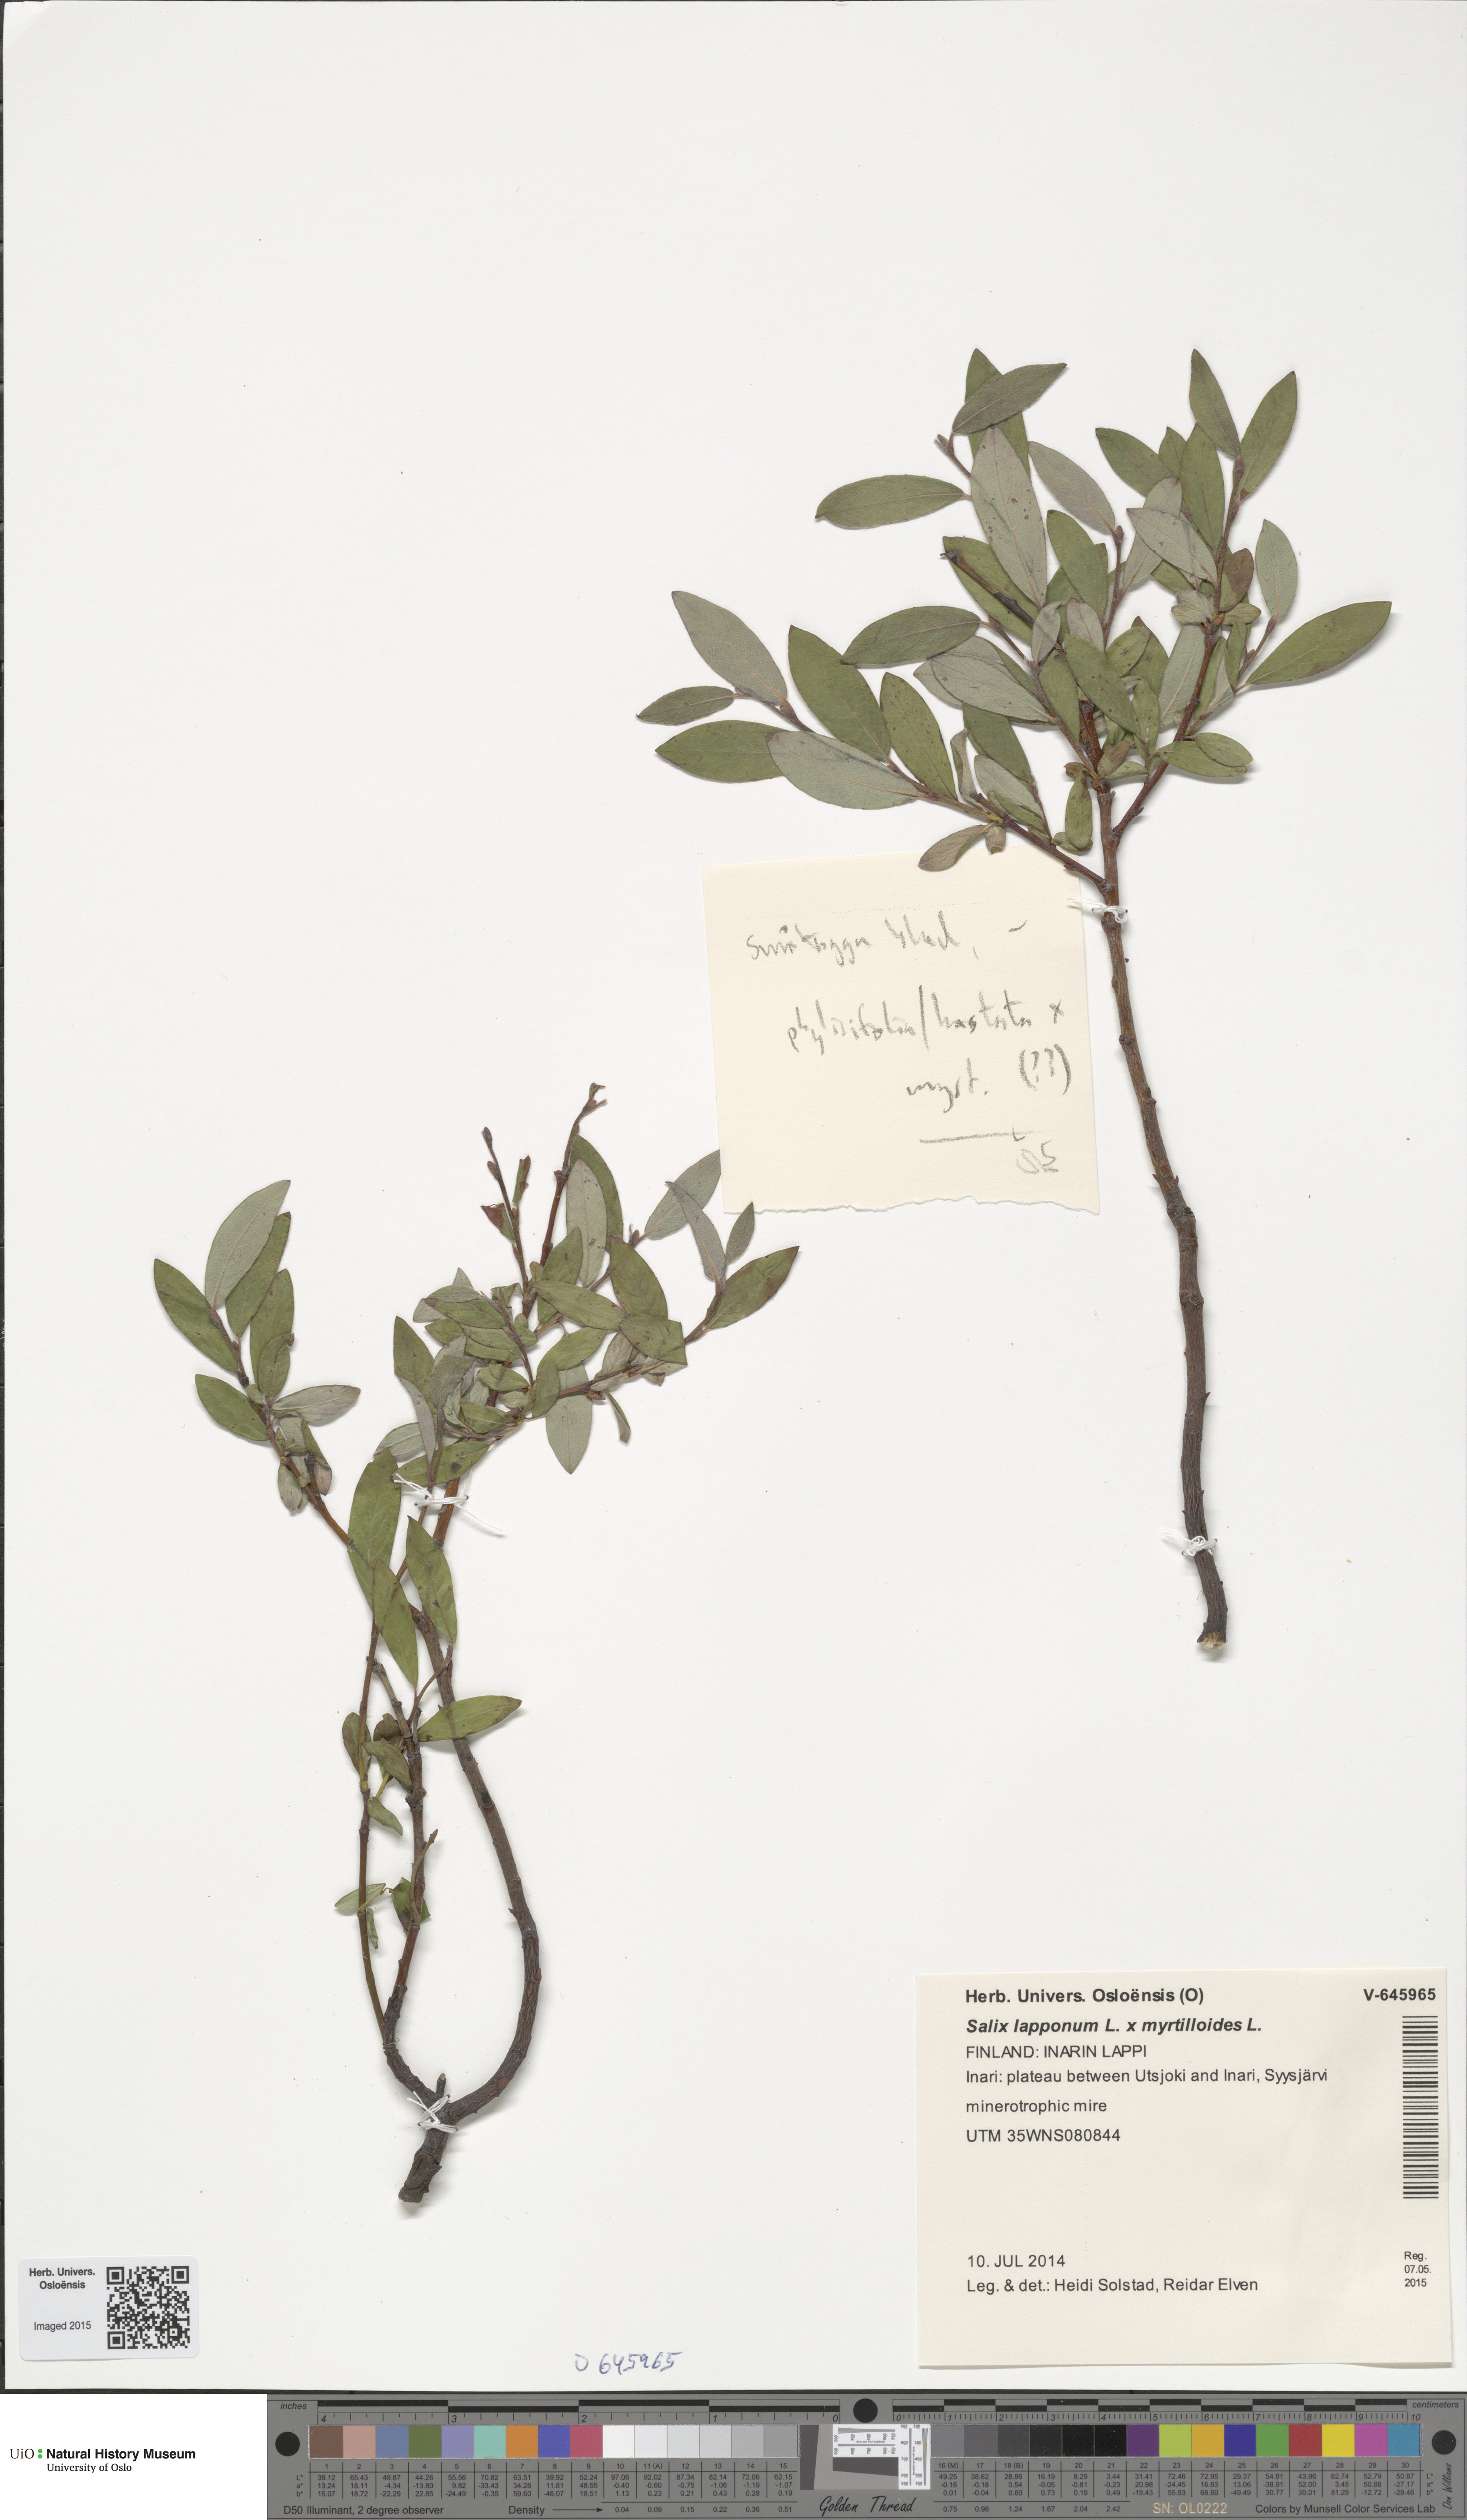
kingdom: Plantae
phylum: Tracheophyta
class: Magnoliopsida
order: Malpighiales
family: Salicaceae
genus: Salix
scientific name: Salix
